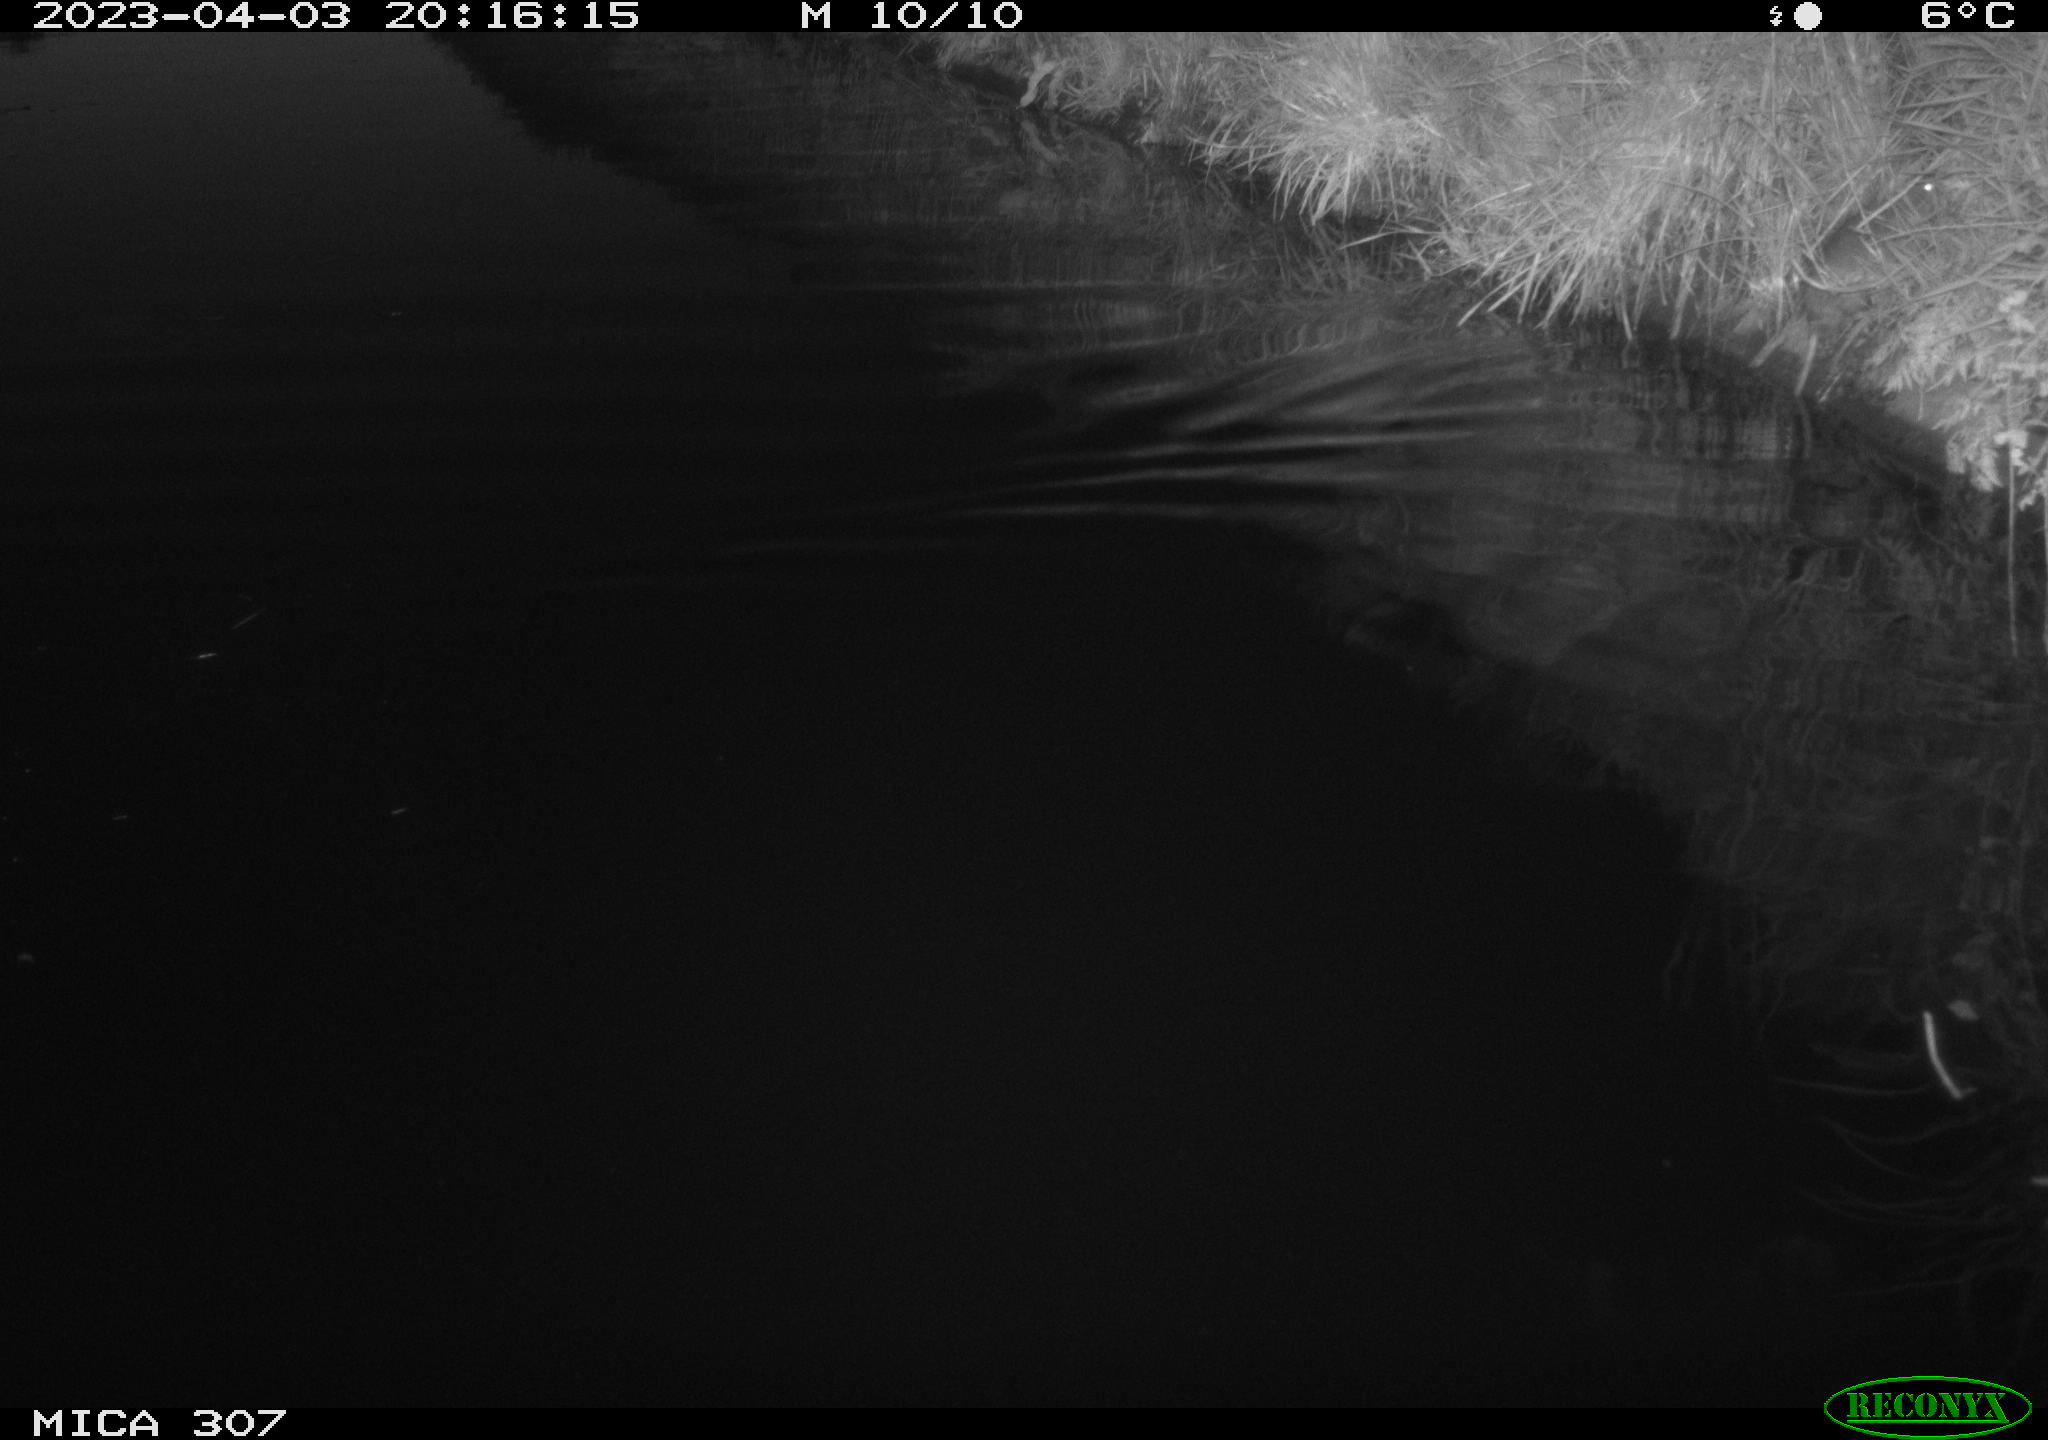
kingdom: Animalia
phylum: Chordata
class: Mammalia
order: Rodentia
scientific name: Rodentia
